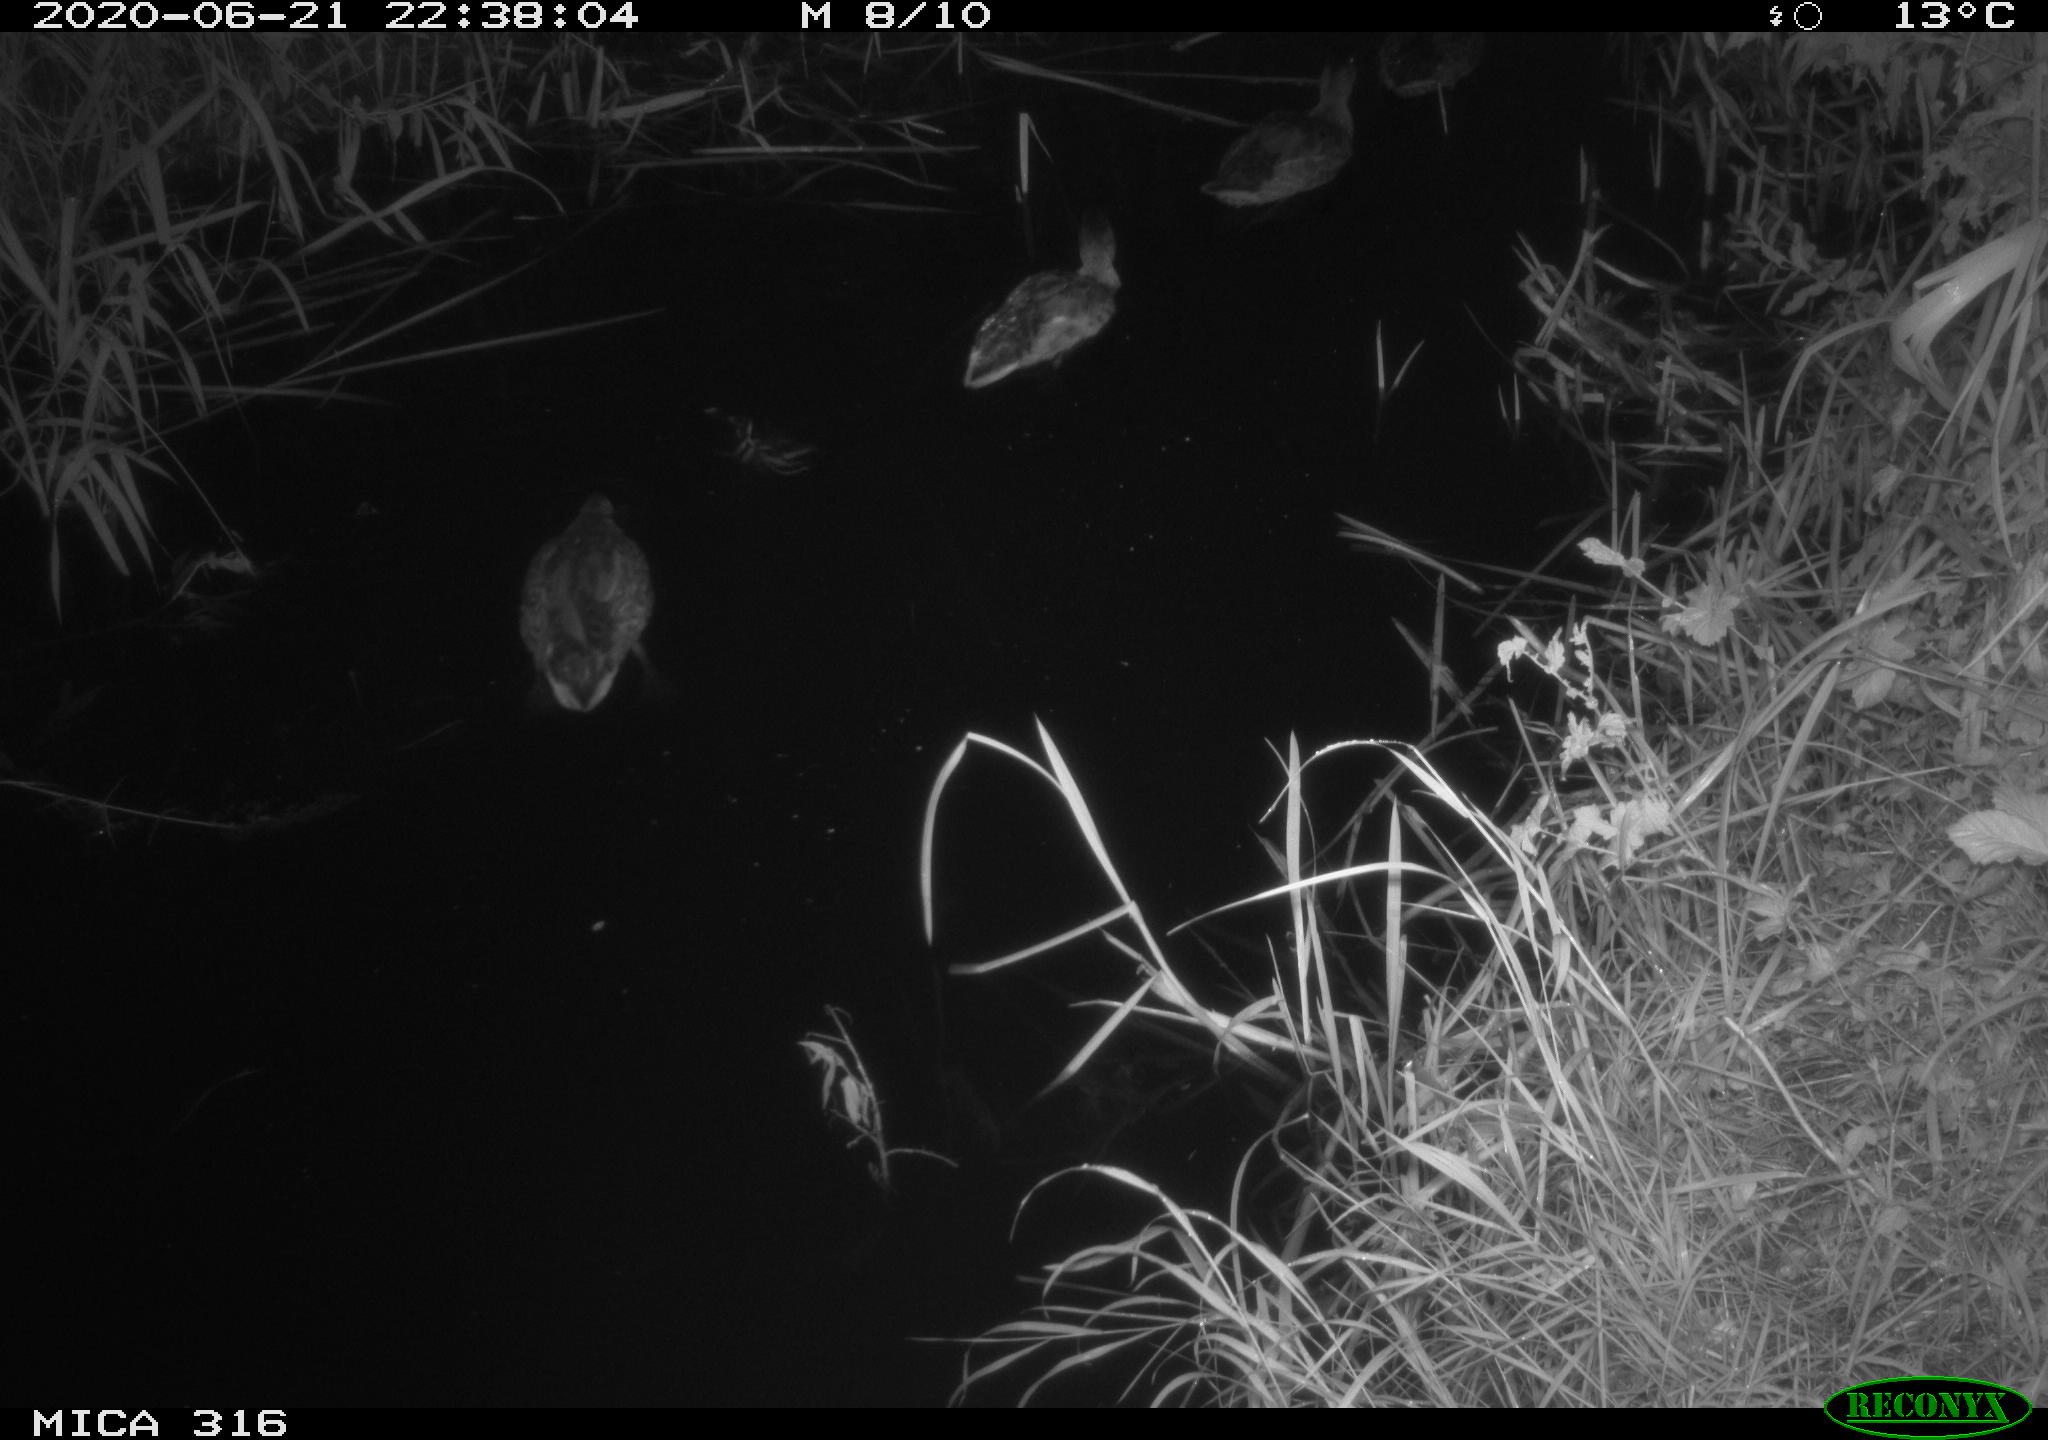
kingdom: Animalia
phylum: Chordata
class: Aves
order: Anseriformes
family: Anatidae
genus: Anas
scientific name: Anas platyrhynchos
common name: Mallard
